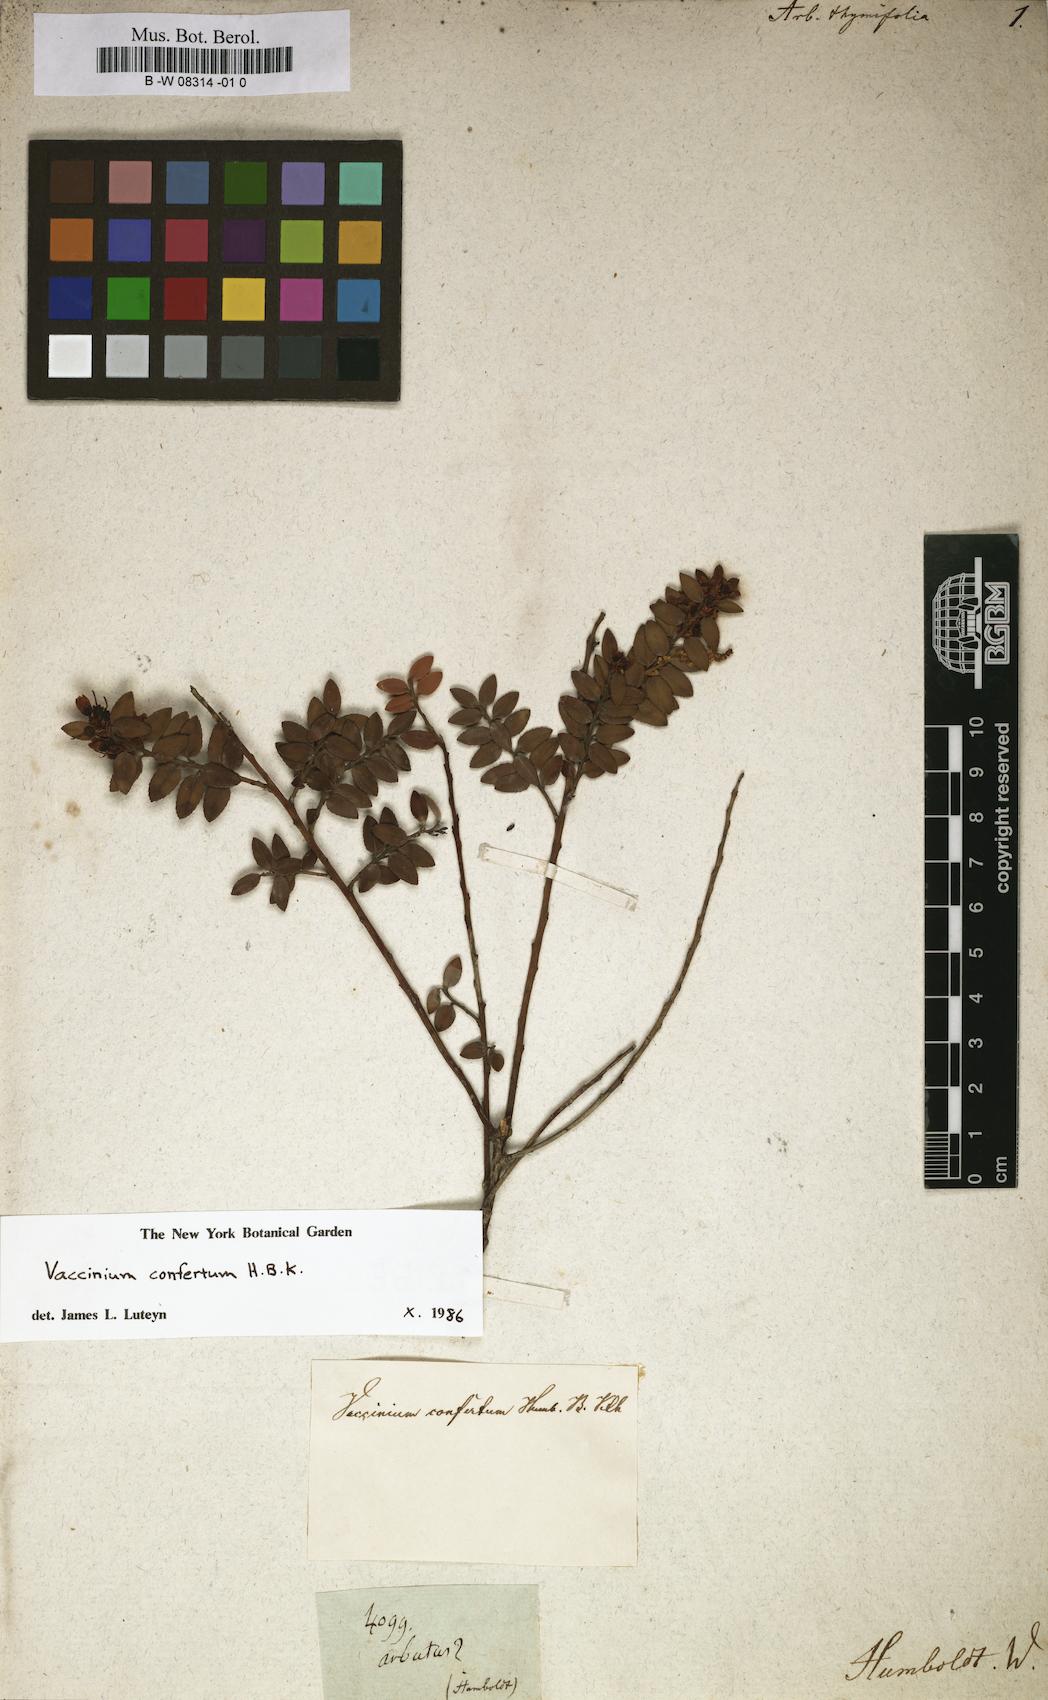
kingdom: Plantae
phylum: Tracheophyta
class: Magnoliopsida
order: Ericales
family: Ericaceae
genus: Gaultheria
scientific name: Gaultheria hispidula
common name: Cancer wintergreen
